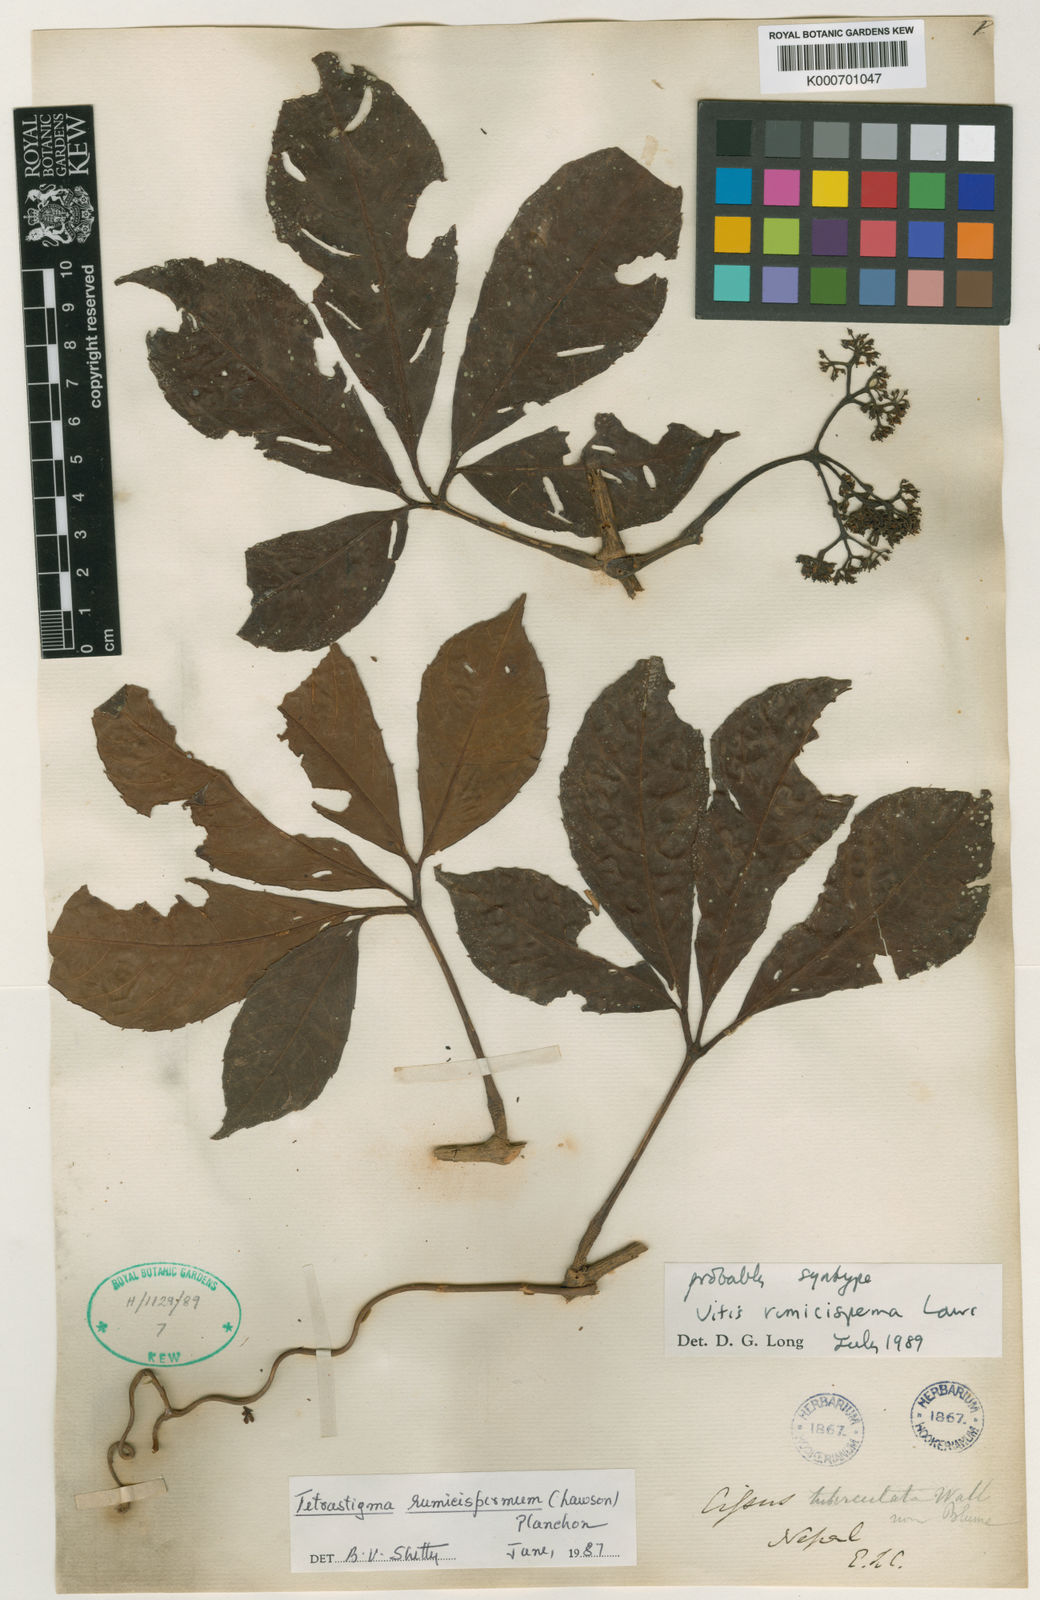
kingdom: Plantae
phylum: Tracheophyta
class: Magnoliopsida
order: Vitales
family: Vitaceae
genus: Tetrastigma
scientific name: Tetrastigma rumicispermum
